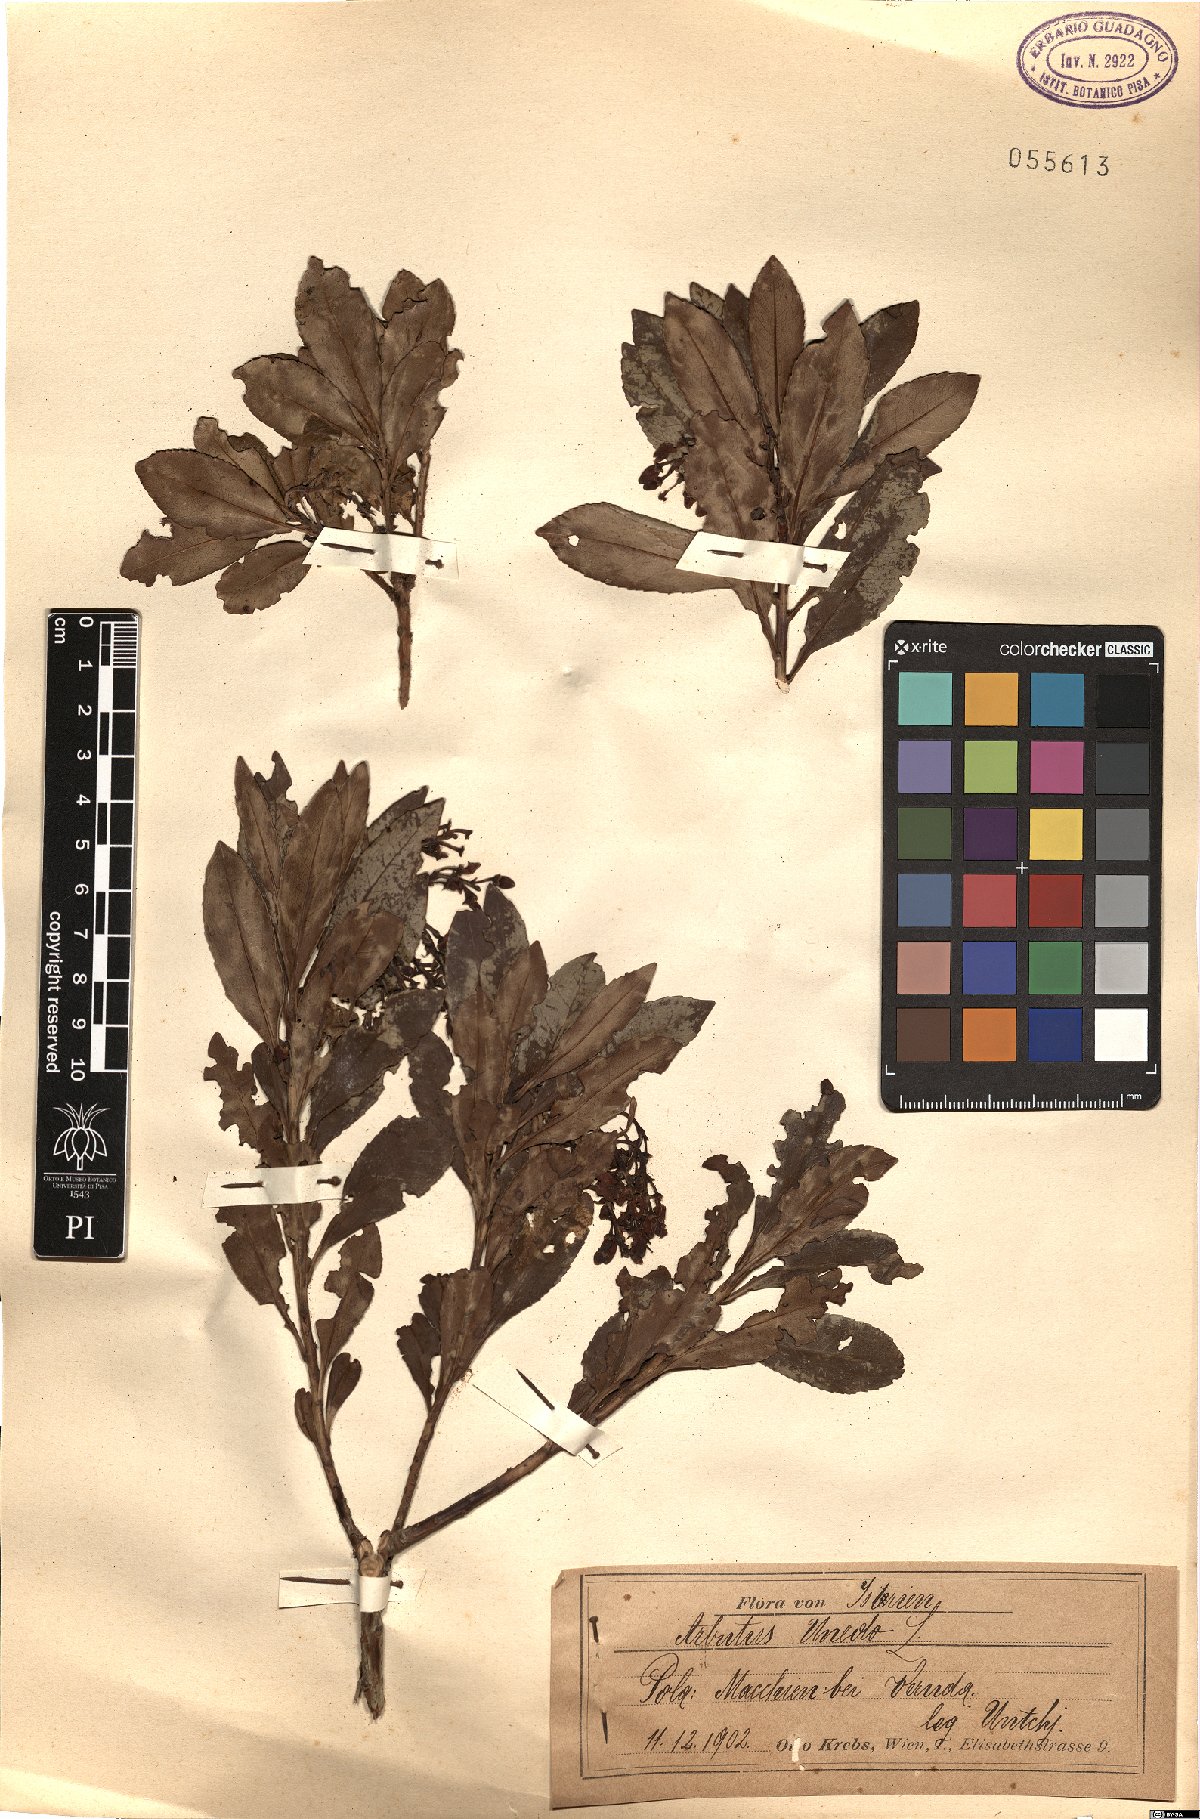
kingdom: Plantae
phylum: Tracheophyta
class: Magnoliopsida
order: Ericales
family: Ericaceae
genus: Arbutus
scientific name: Arbutus unedo
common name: Strawberry-tree
